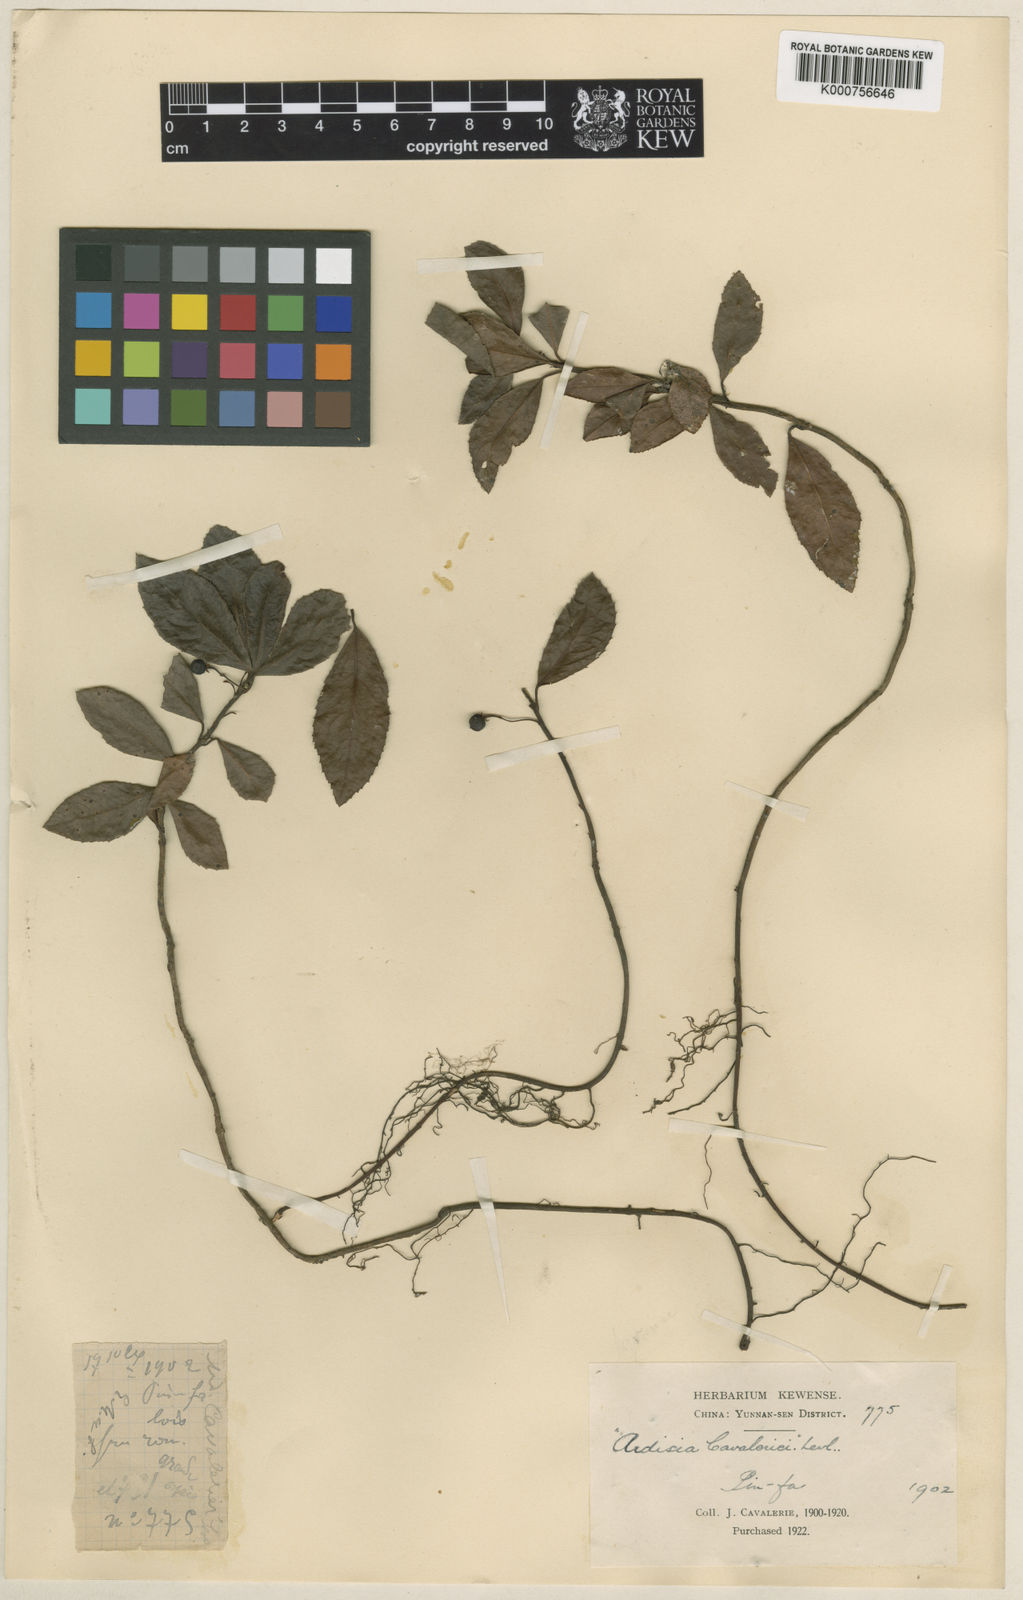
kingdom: Plantae
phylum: Tracheophyta
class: Magnoliopsida
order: Ericales
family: Primulaceae
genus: Ardisia
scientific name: Ardisia faberi
